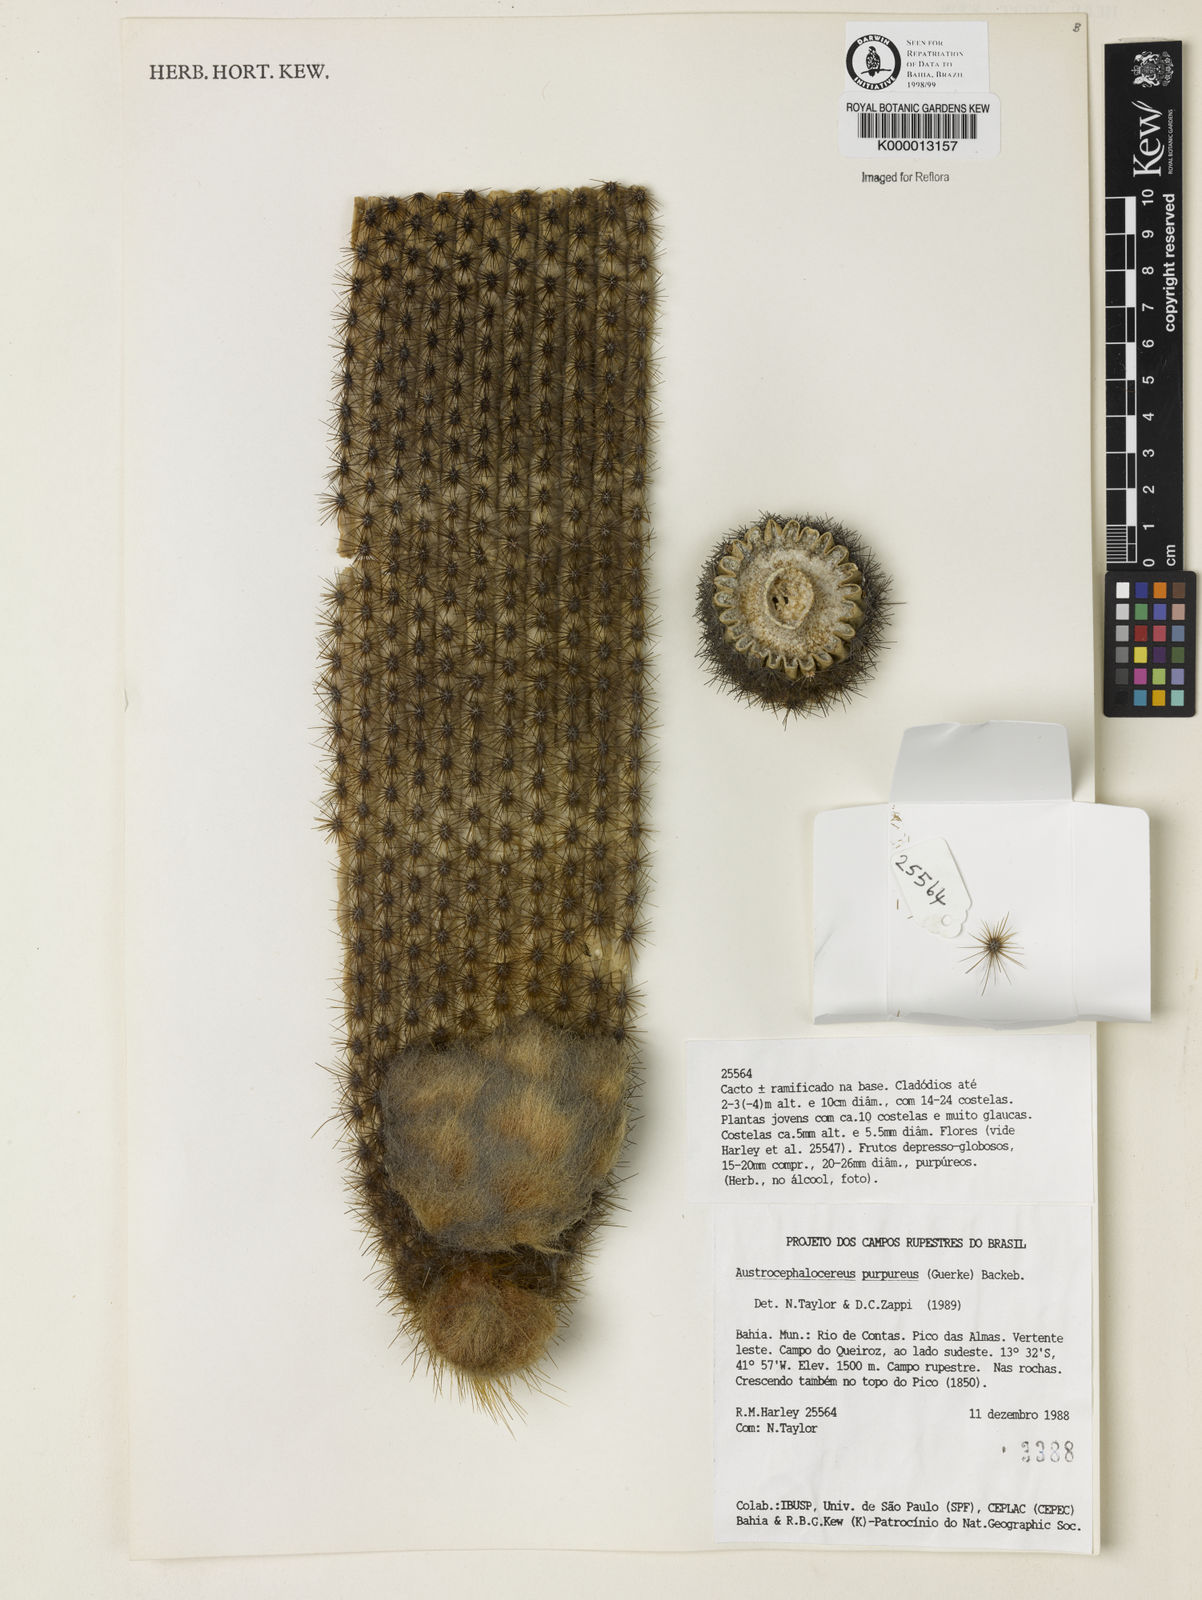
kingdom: Plantae
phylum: Tracheophyta
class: Magnoliopsida
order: Caryophyllales
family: Cactaceae
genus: Micranthocereus
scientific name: Micranthocereus purpureus
